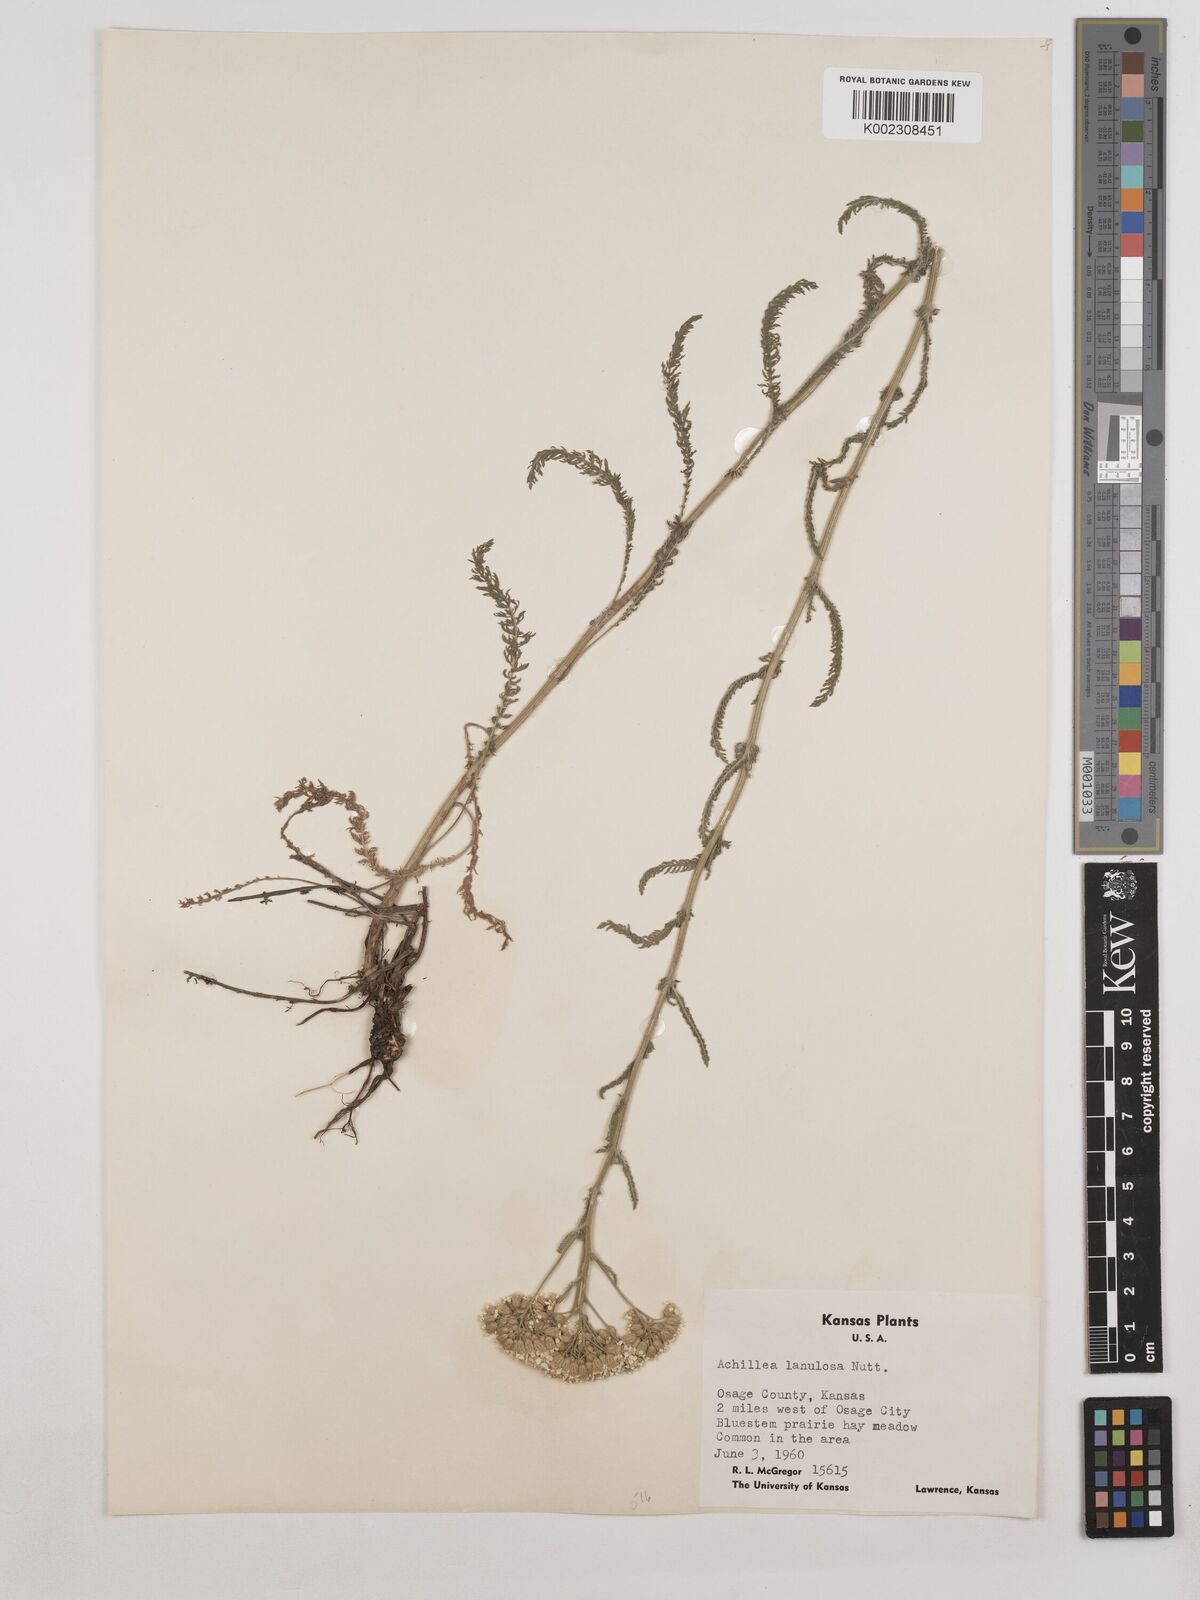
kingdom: Plantae
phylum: Tracheophyta
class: Magnoliopsida
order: Asterales
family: Asteraceae
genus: Achillea
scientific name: Achillea millefolium
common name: Yarrow
